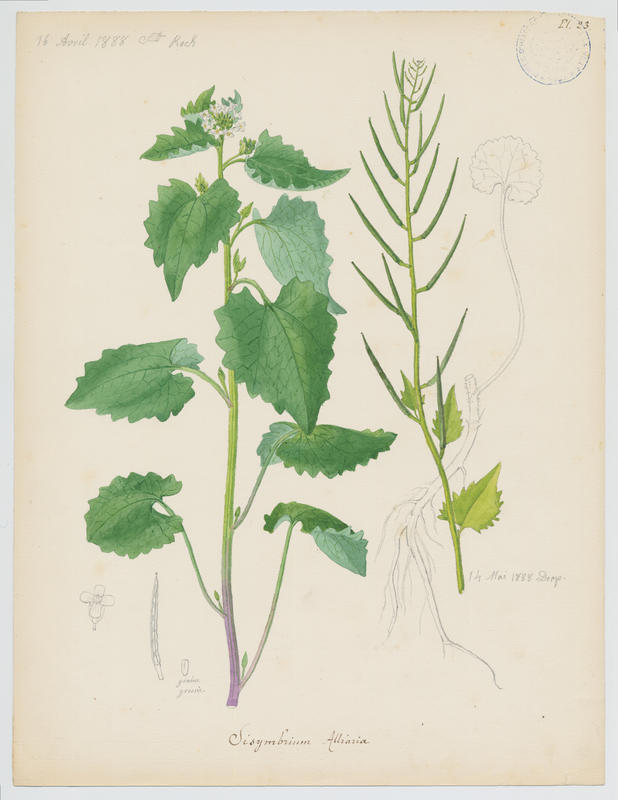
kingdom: Plantae
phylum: Tracheophyta
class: Magnoliopsida
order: Brassicales
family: Brassicaceae
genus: Alliaria
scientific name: Alliaria petiolata
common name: Garlic mustard
